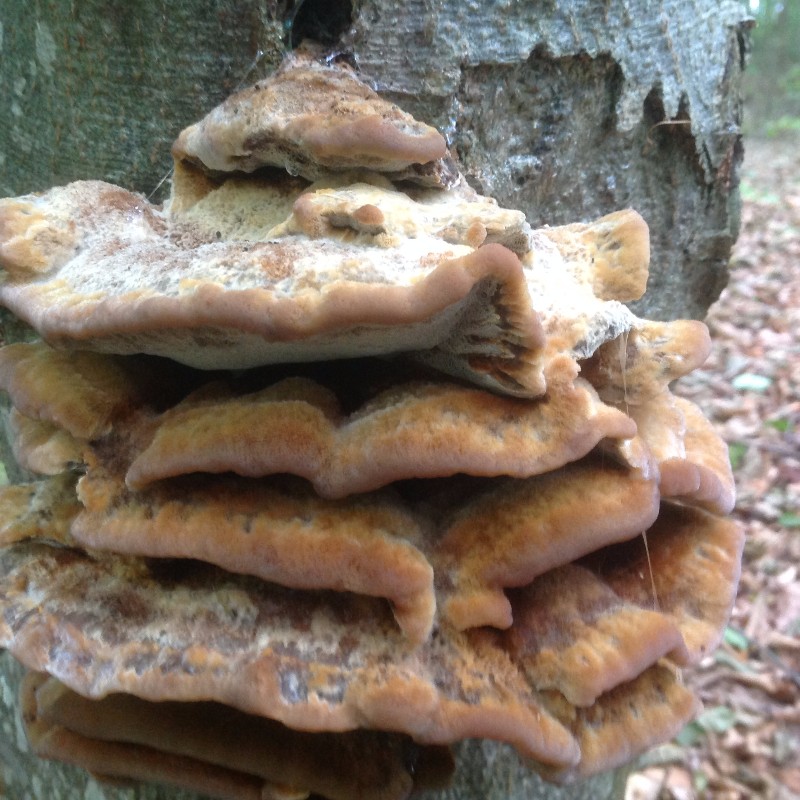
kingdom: Fungi
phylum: Basidiomycota
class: Agaricomycetes
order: Hymenochaetales
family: Hymenochaetaceae
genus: Inonotus
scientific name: Inonotus cuticularis
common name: kroghåret spejlporesvamp
